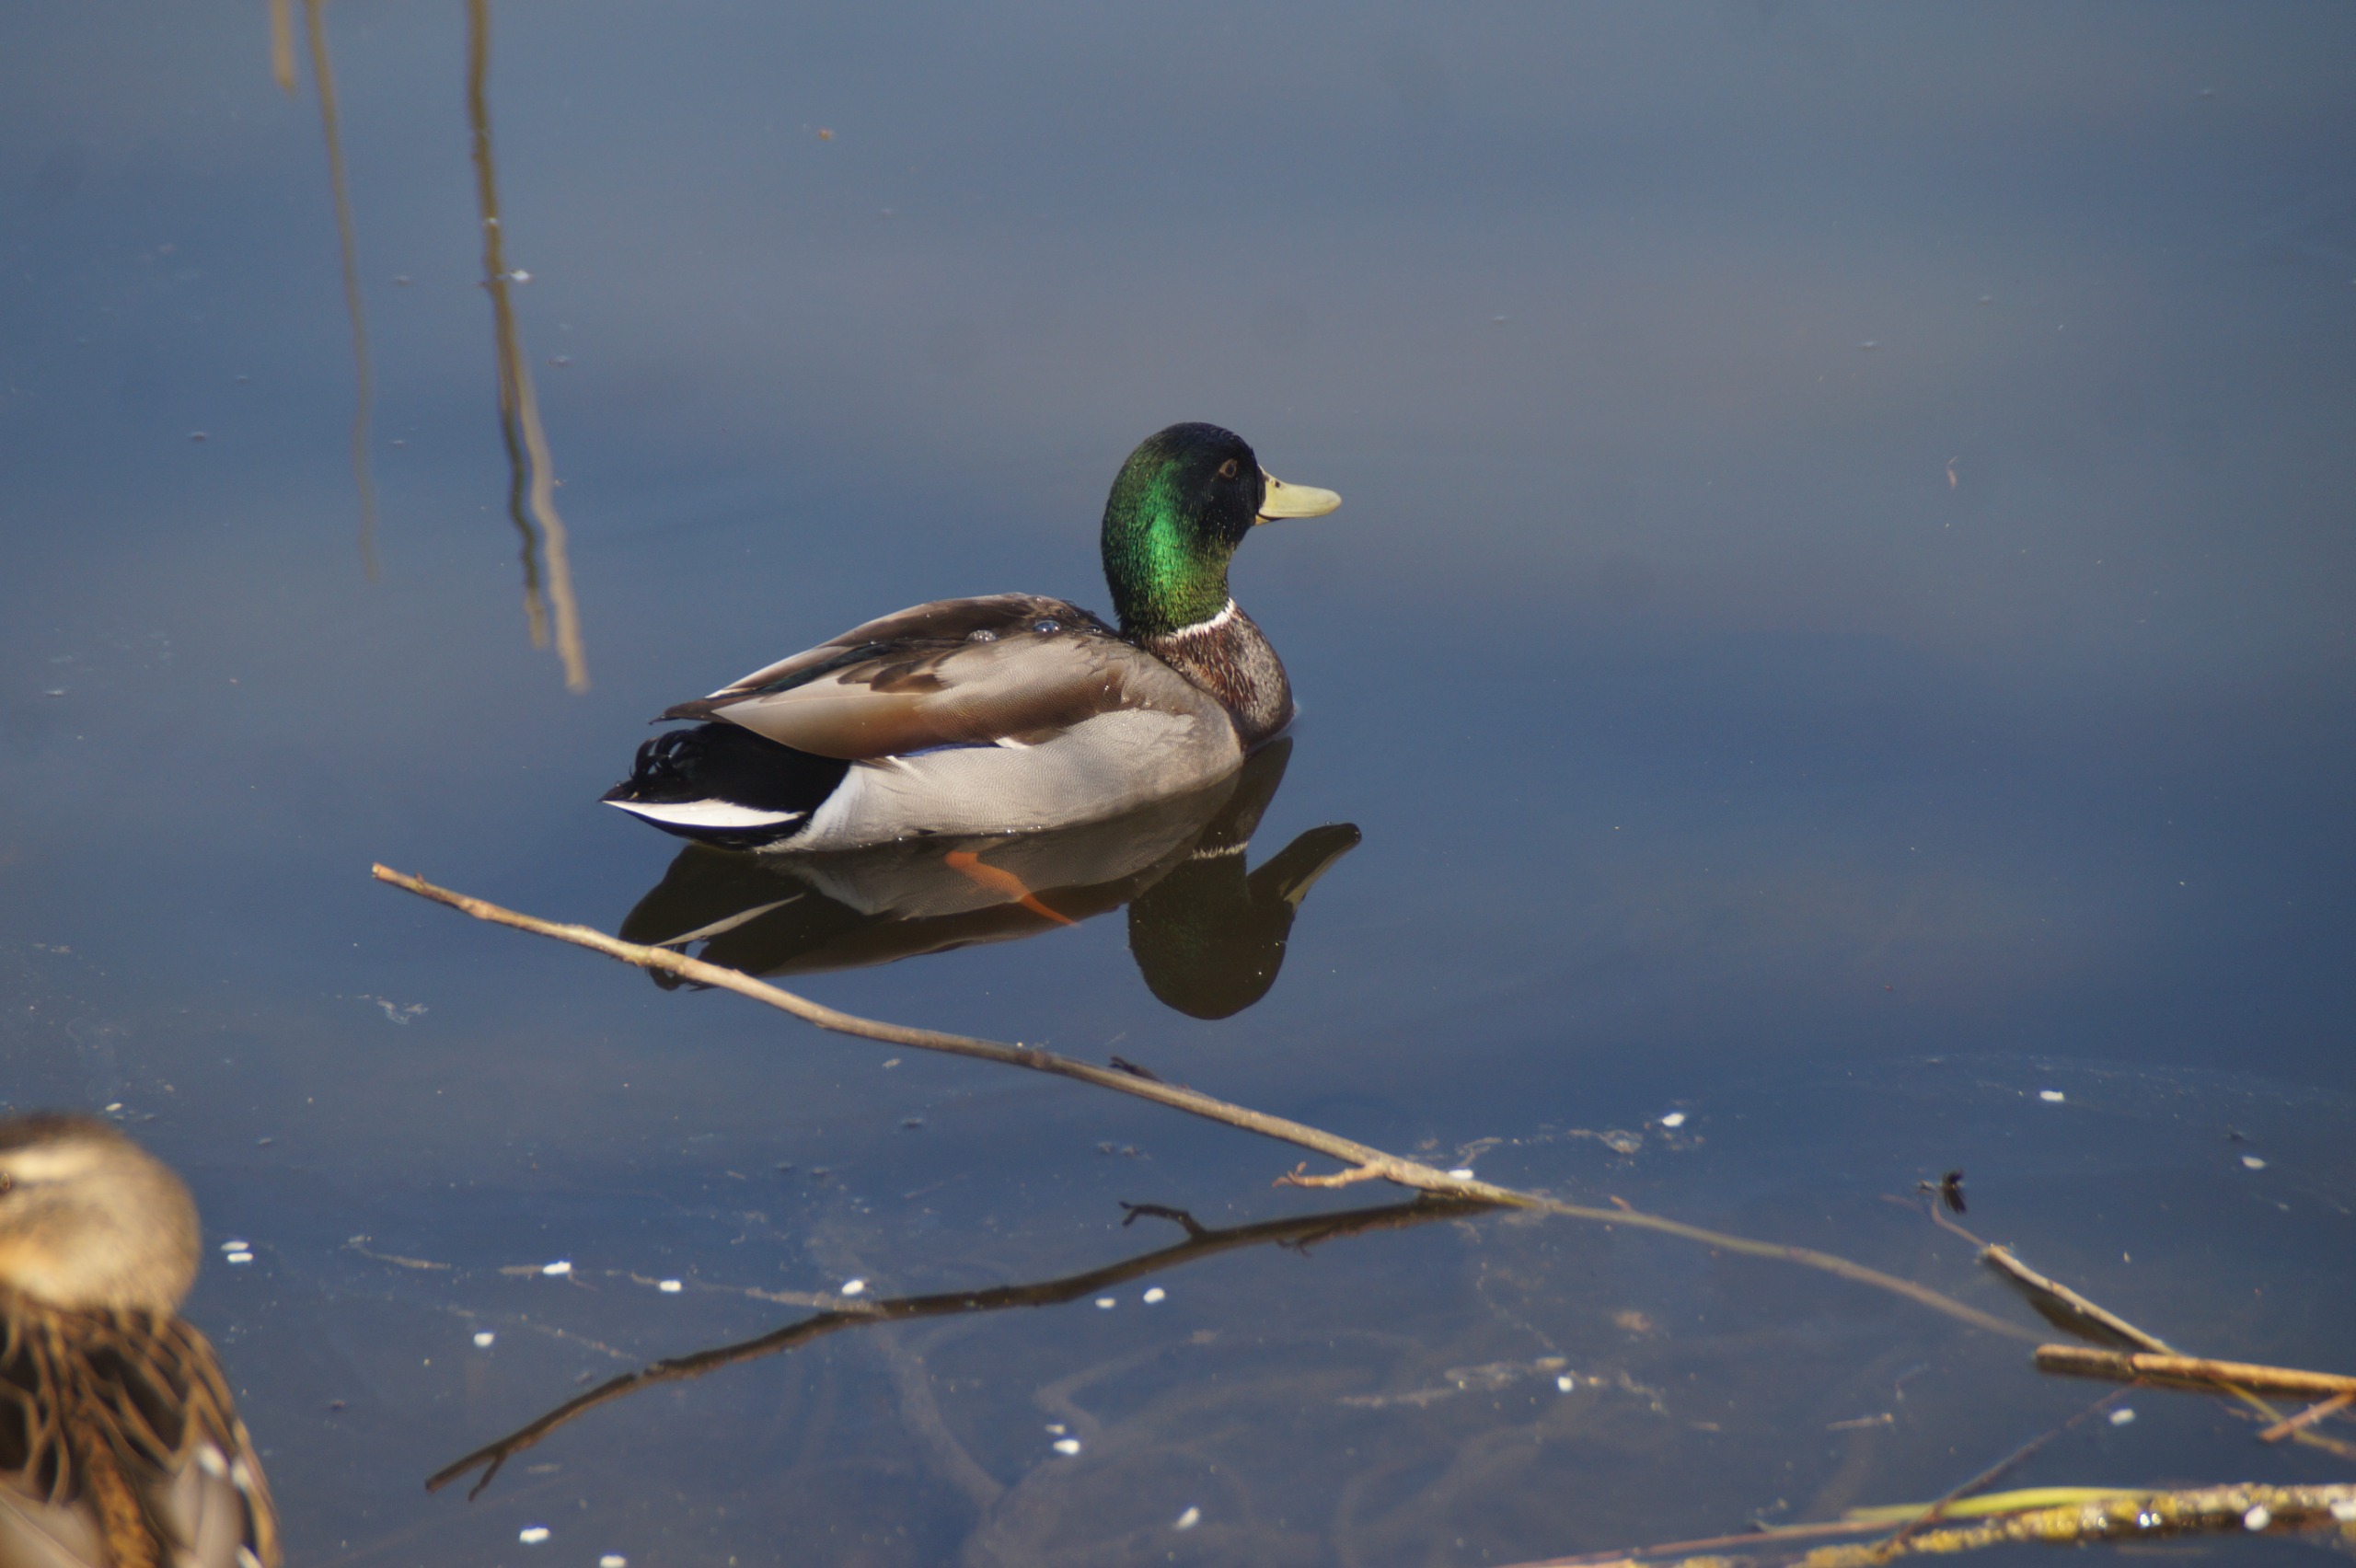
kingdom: Animalia
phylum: Chordata
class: Aves
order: Anseriformes
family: Anatidae
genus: Anas
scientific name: Anas platyrhynchos
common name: Gråand
